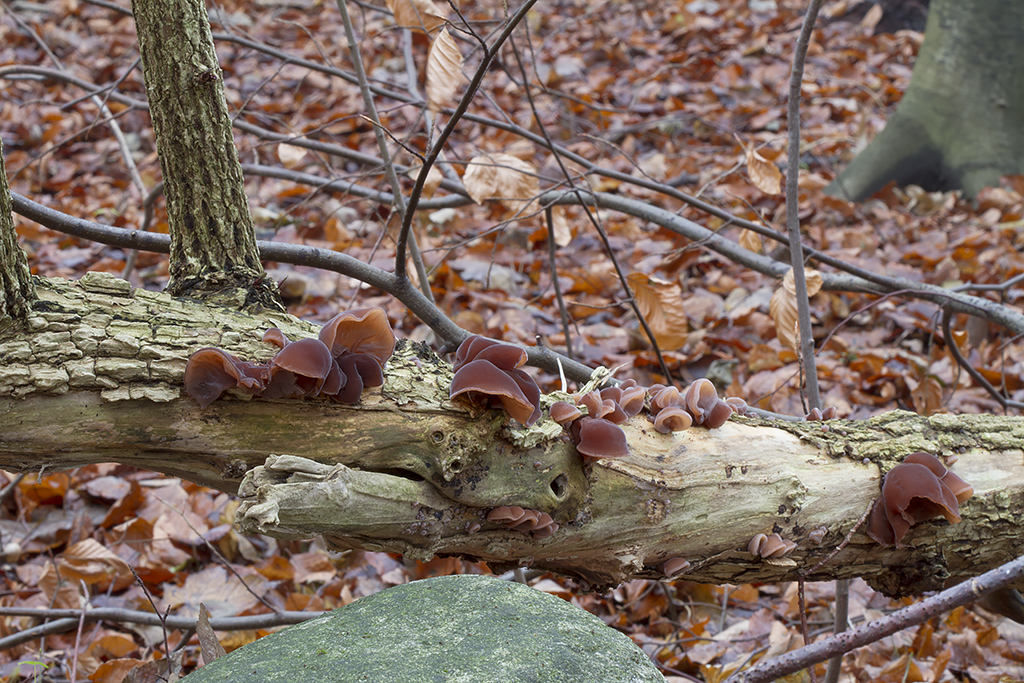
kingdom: Fungi
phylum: Basidiomycota
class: Agaricomycetes
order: Auriculariales
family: Auriculariaceae
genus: Auricularia
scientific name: Auricularia auricula-judae
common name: almindelig judasøre
